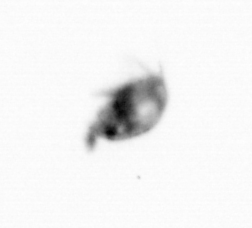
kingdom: Animalia
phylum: Arthropoda
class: Copepoda
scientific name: Copepoda
